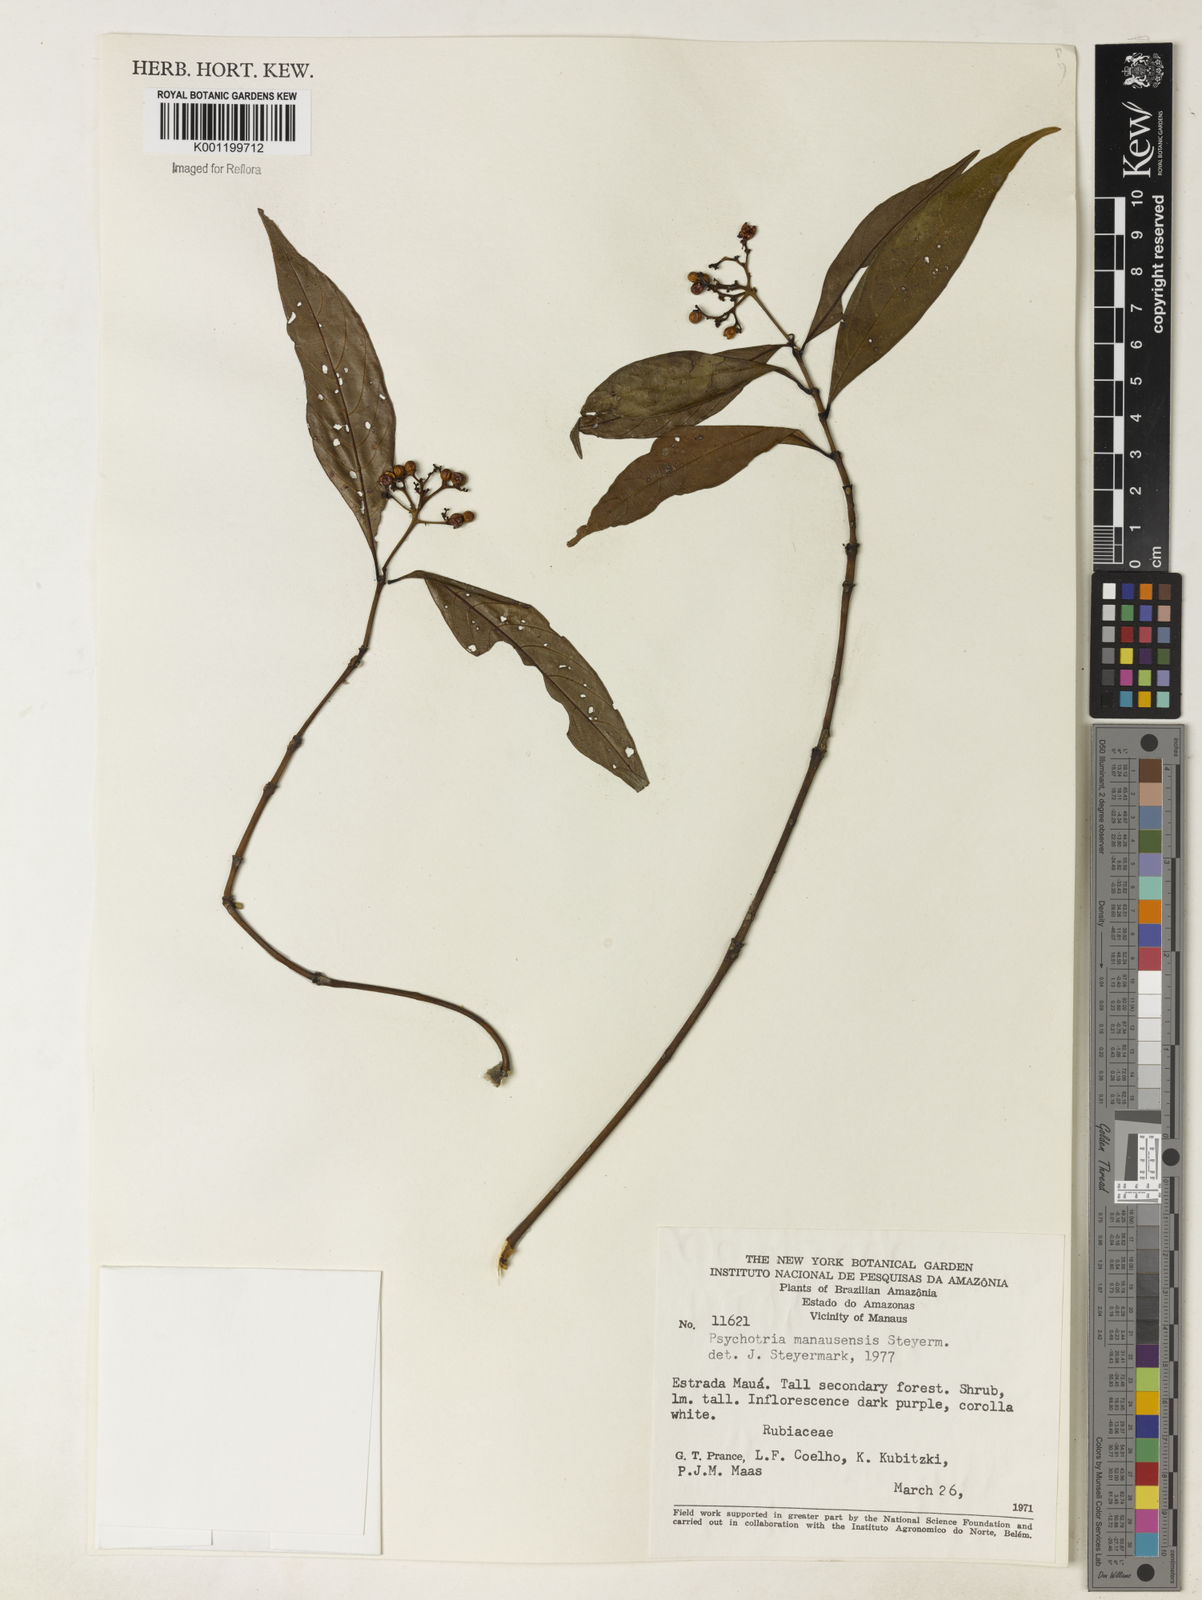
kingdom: Plantae
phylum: Tracheophyta
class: Magnoliopsida
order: Gentianales
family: Rubiaceae
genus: Palicourea
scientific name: Palicourea manausensis
